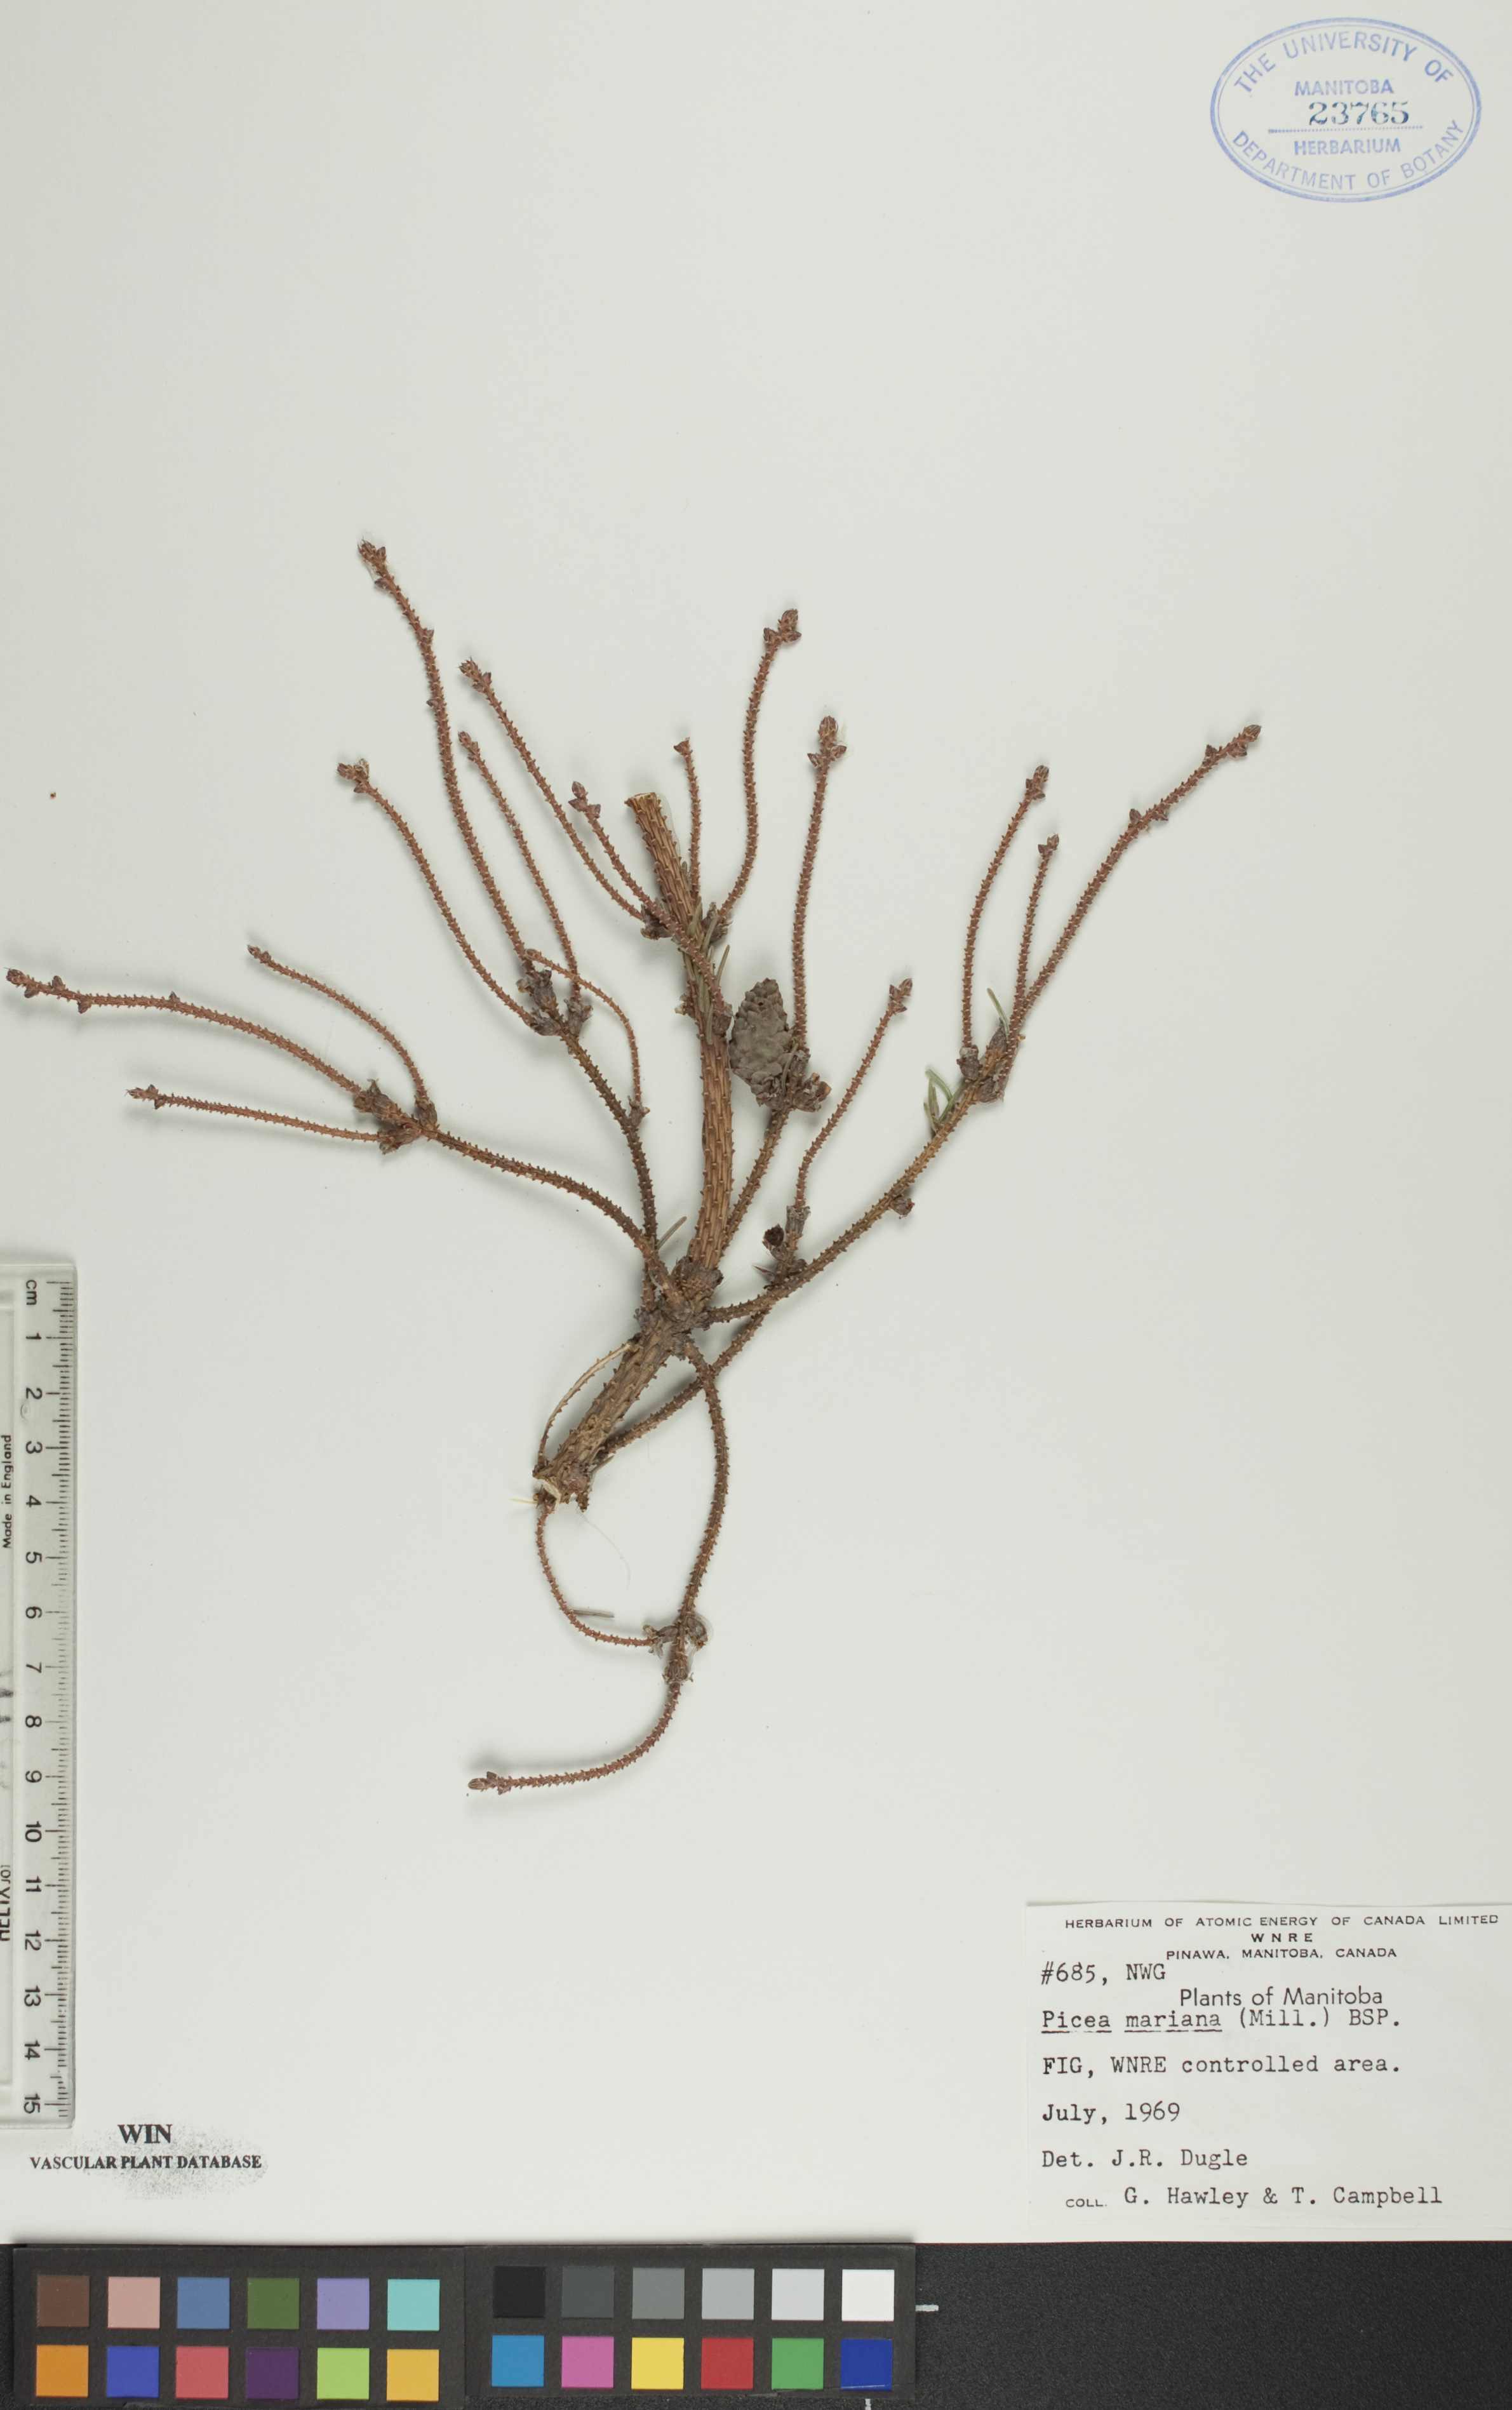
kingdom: Plantae
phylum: Tracheophyta
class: Pinopsida
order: Pinales
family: Pinaceae
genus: Picea
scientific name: Picea mariana
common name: Black spruce
